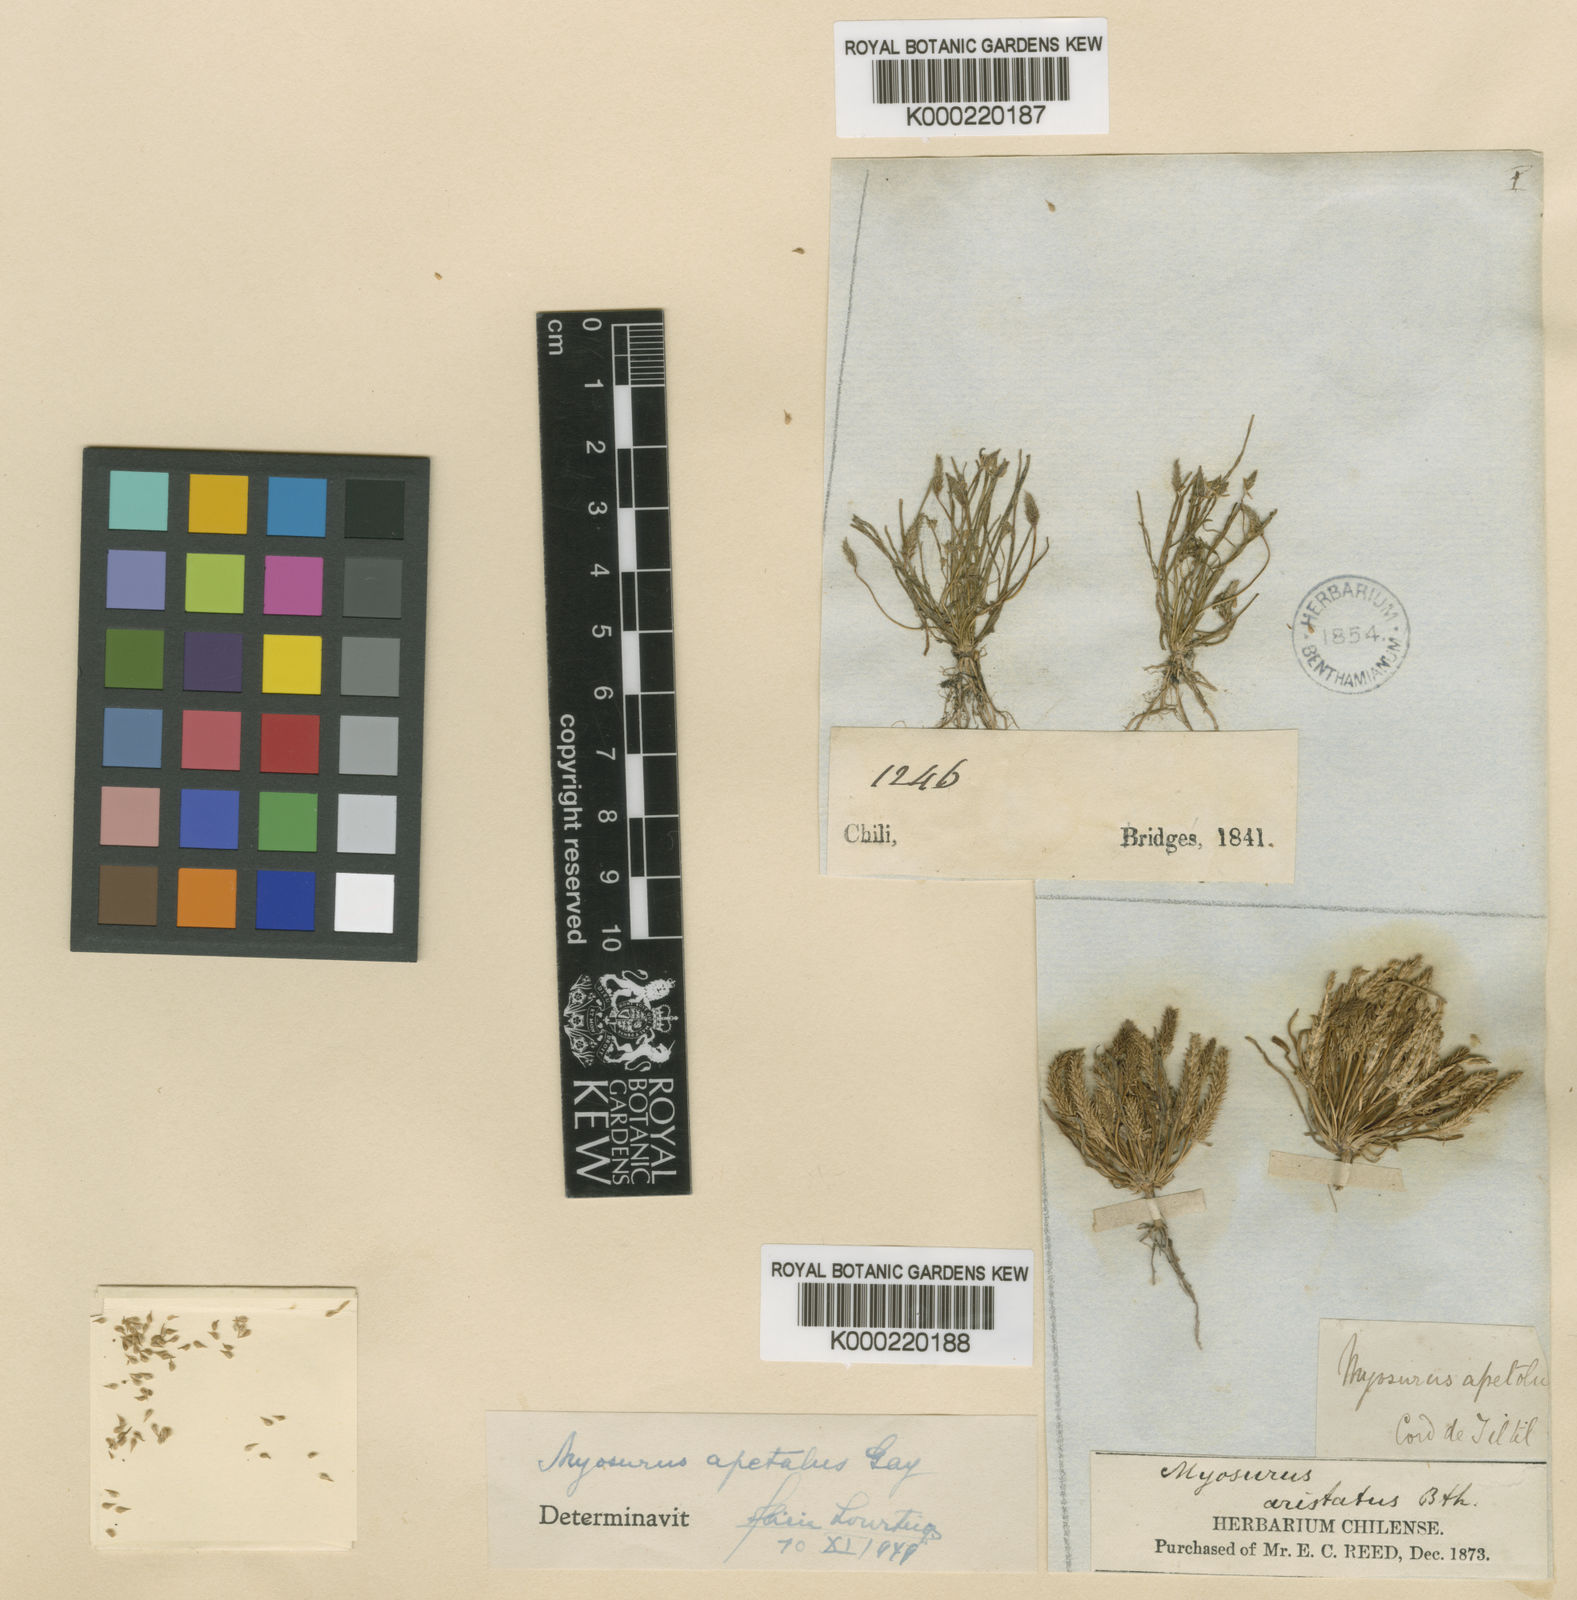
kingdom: Plantae
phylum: Tracheophyta
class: Magnoliopsida
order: Ranunculales
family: Ranunculaceae
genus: Myosurus
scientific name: Myosurus
